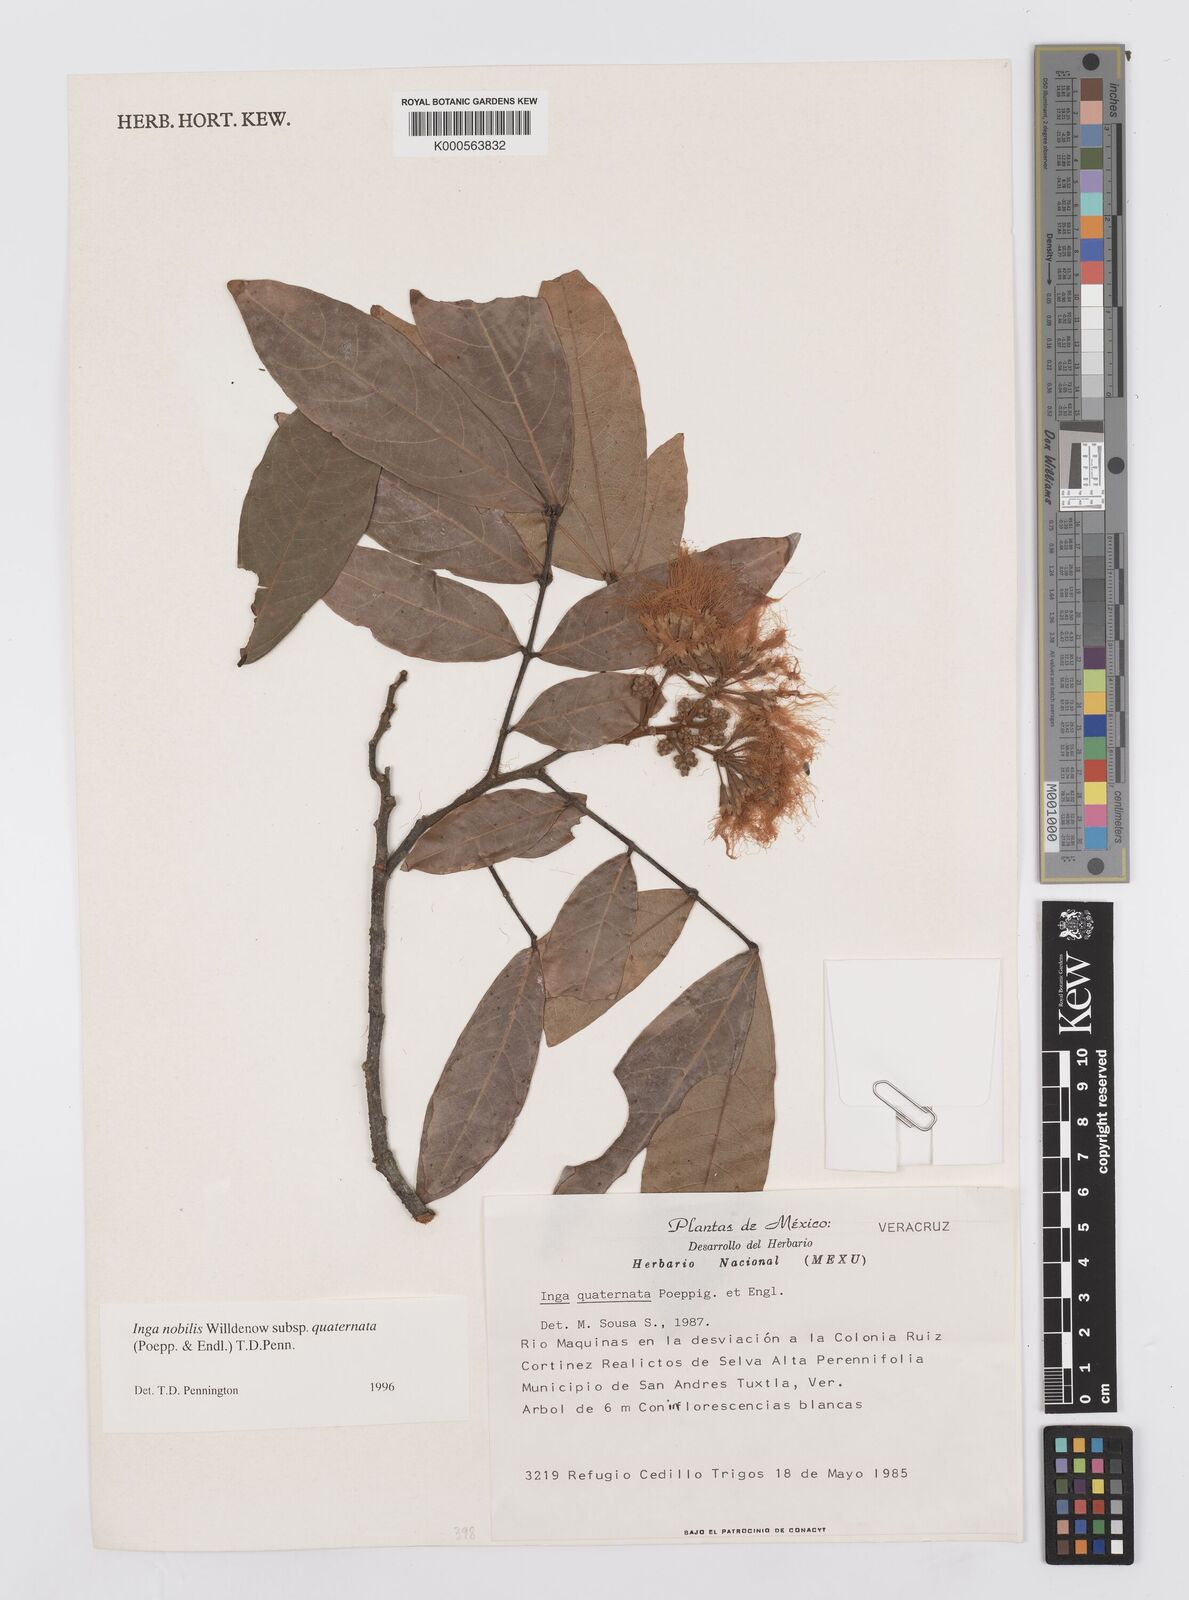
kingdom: Plantae
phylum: Tracheophyta
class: Magnoliopsida
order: Fabales
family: Fabaceae
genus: Inga
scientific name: Inga nobilis
